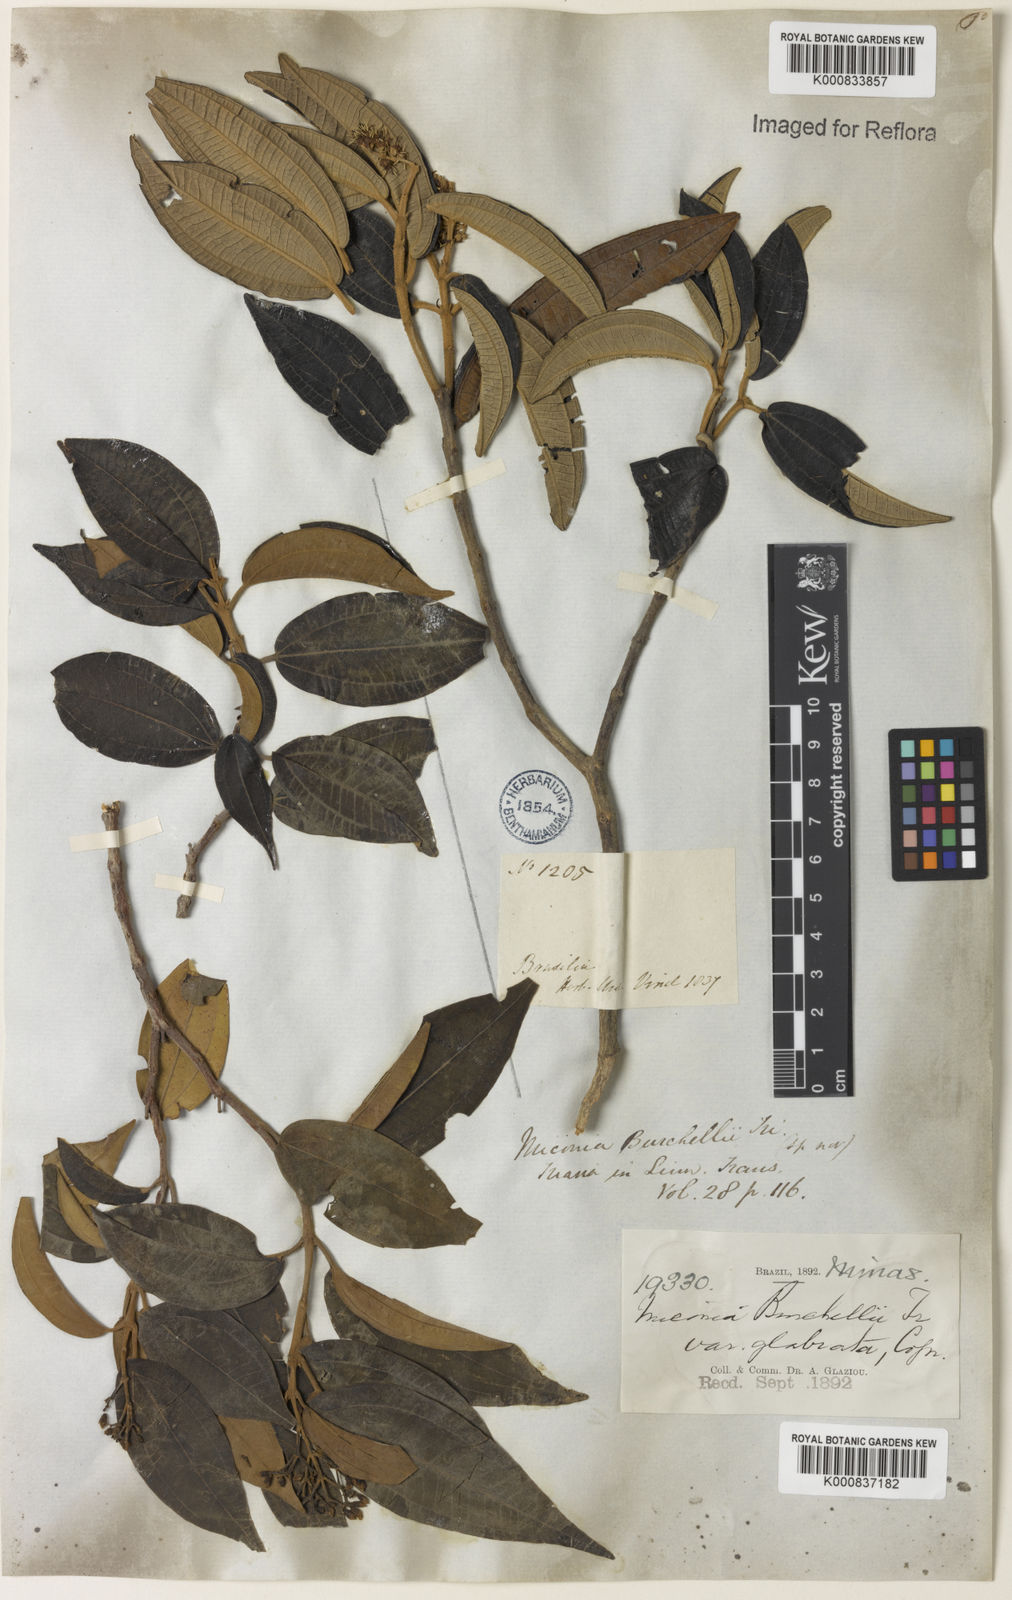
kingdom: Plantae
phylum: Tracheophyta
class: Magnoliopsida
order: Myrtales
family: Melastomataceae
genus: Miconia
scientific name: Miconia fasciculata
